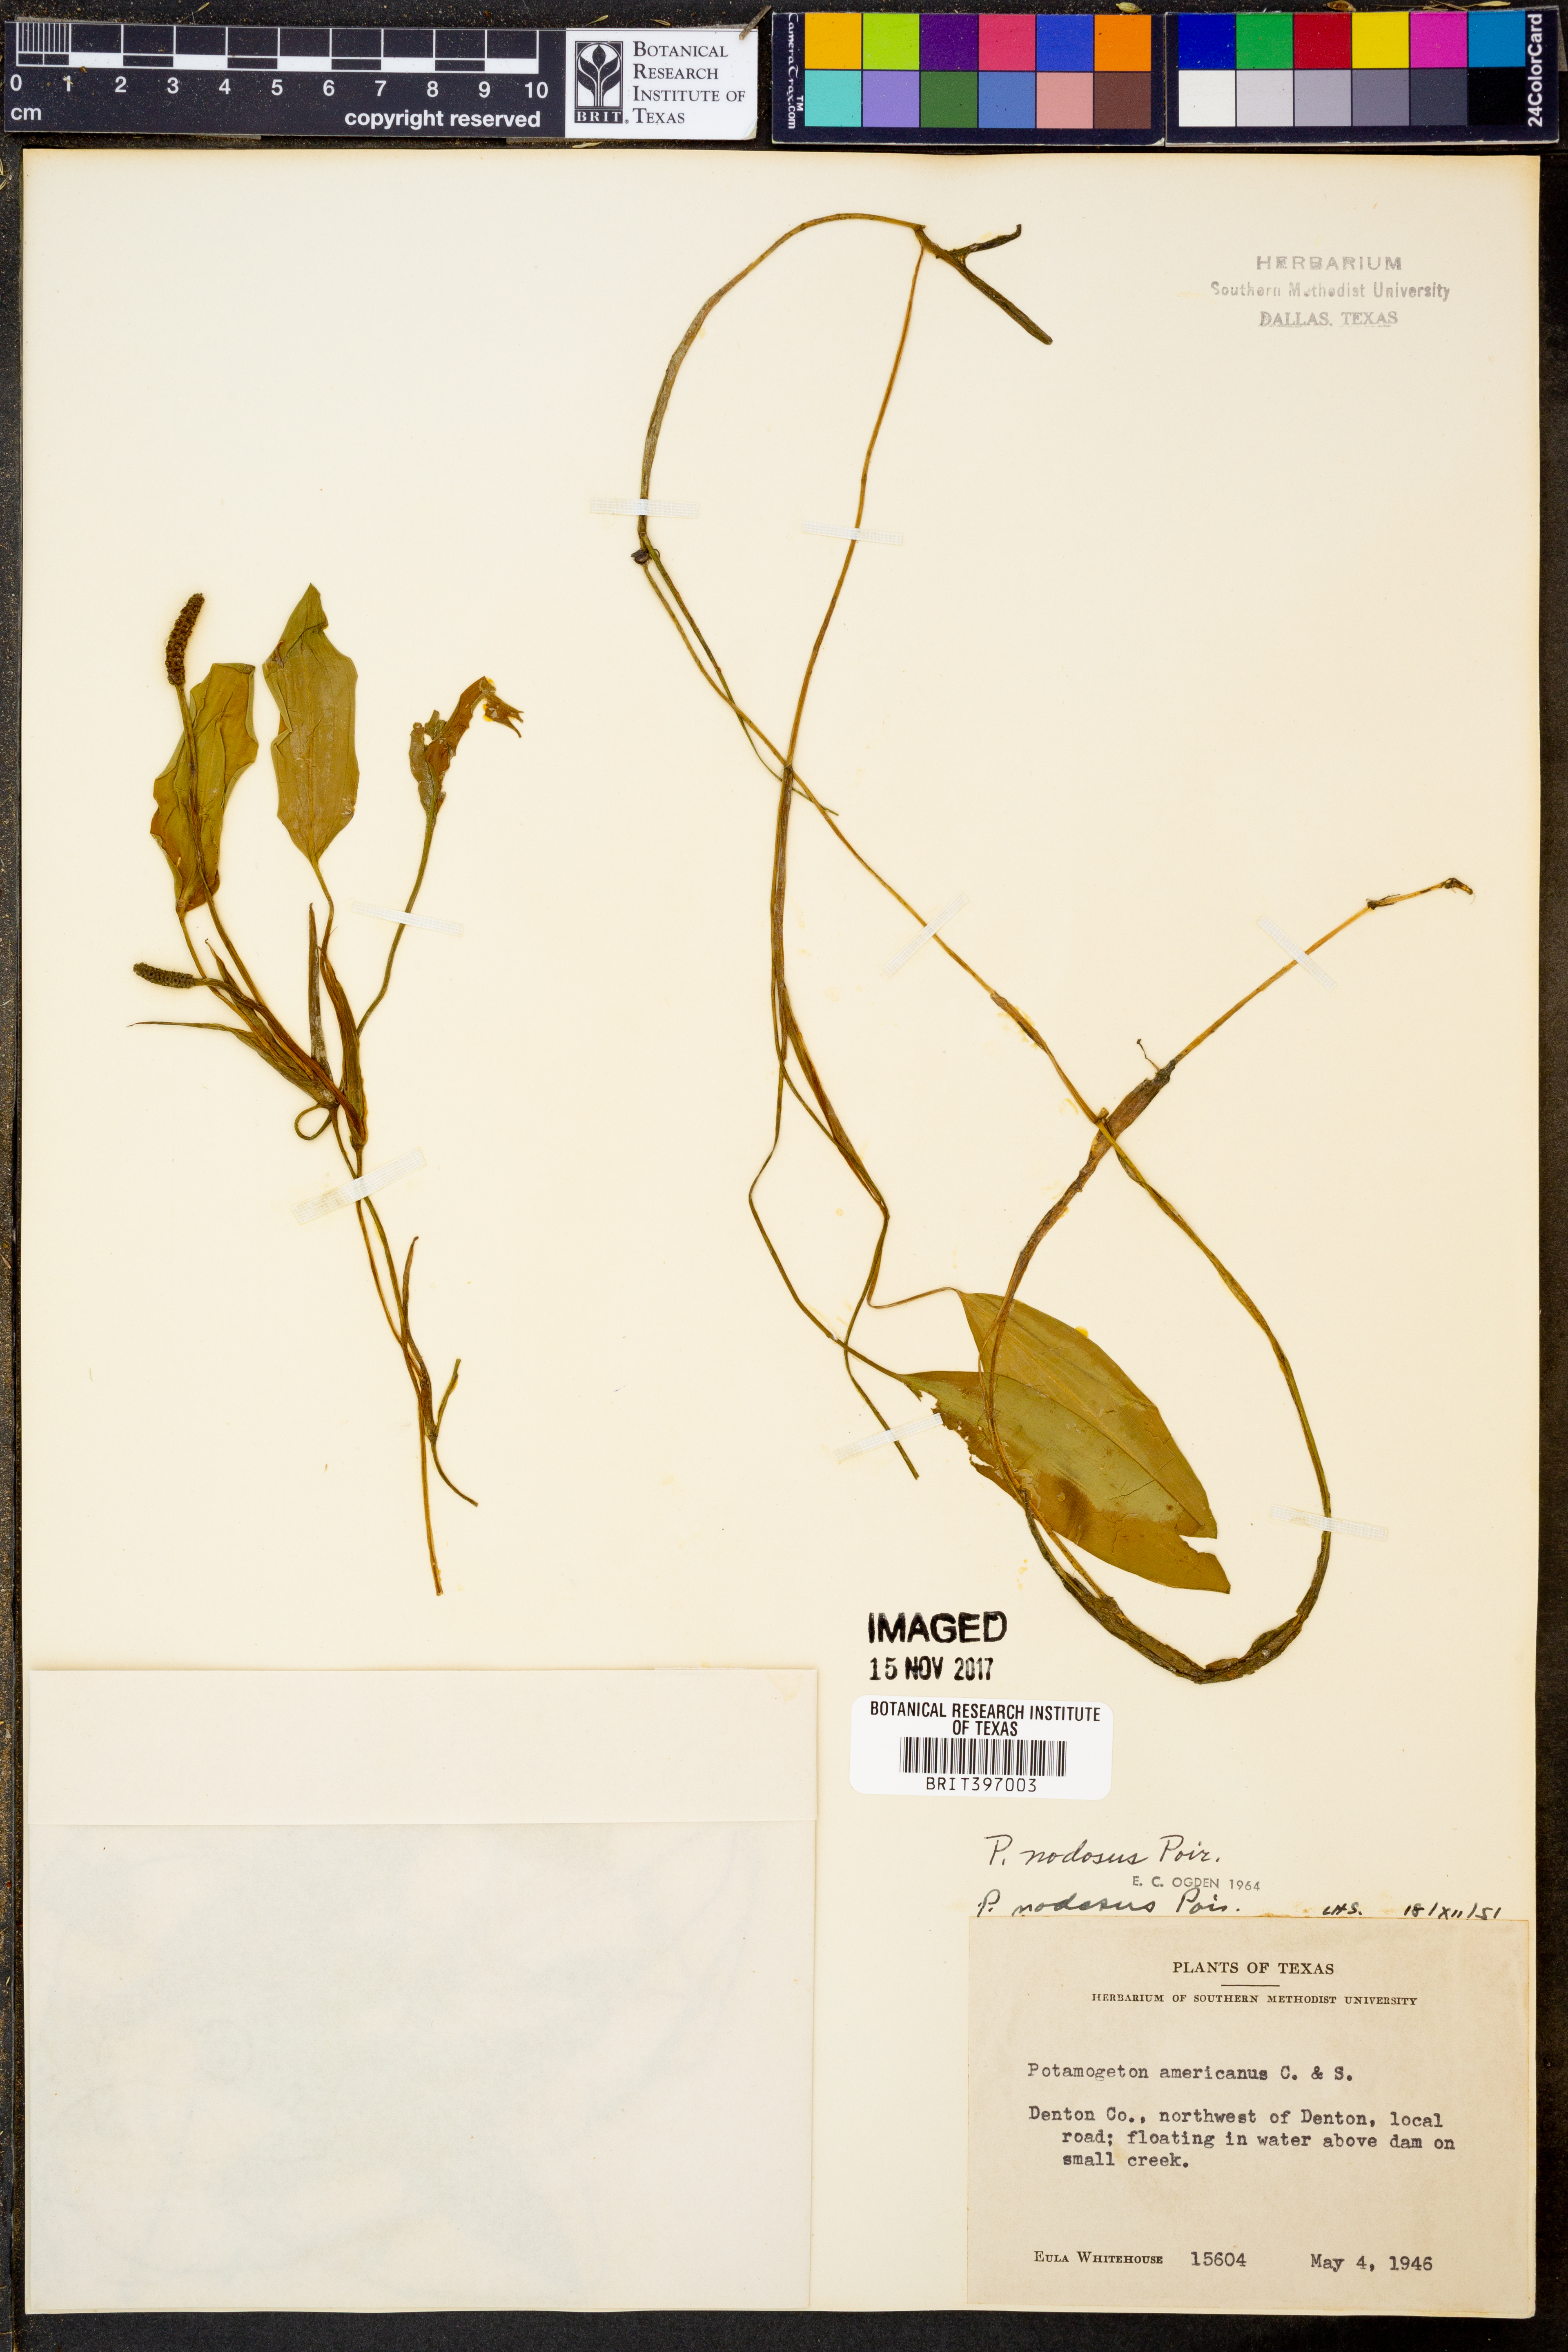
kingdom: Plantae
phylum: Tracheophyta
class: Liliopsida
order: Alismatales
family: Potamogetonaceae
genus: Potamogeton
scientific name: Potamogeton nodosus
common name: Loddon pondweed
